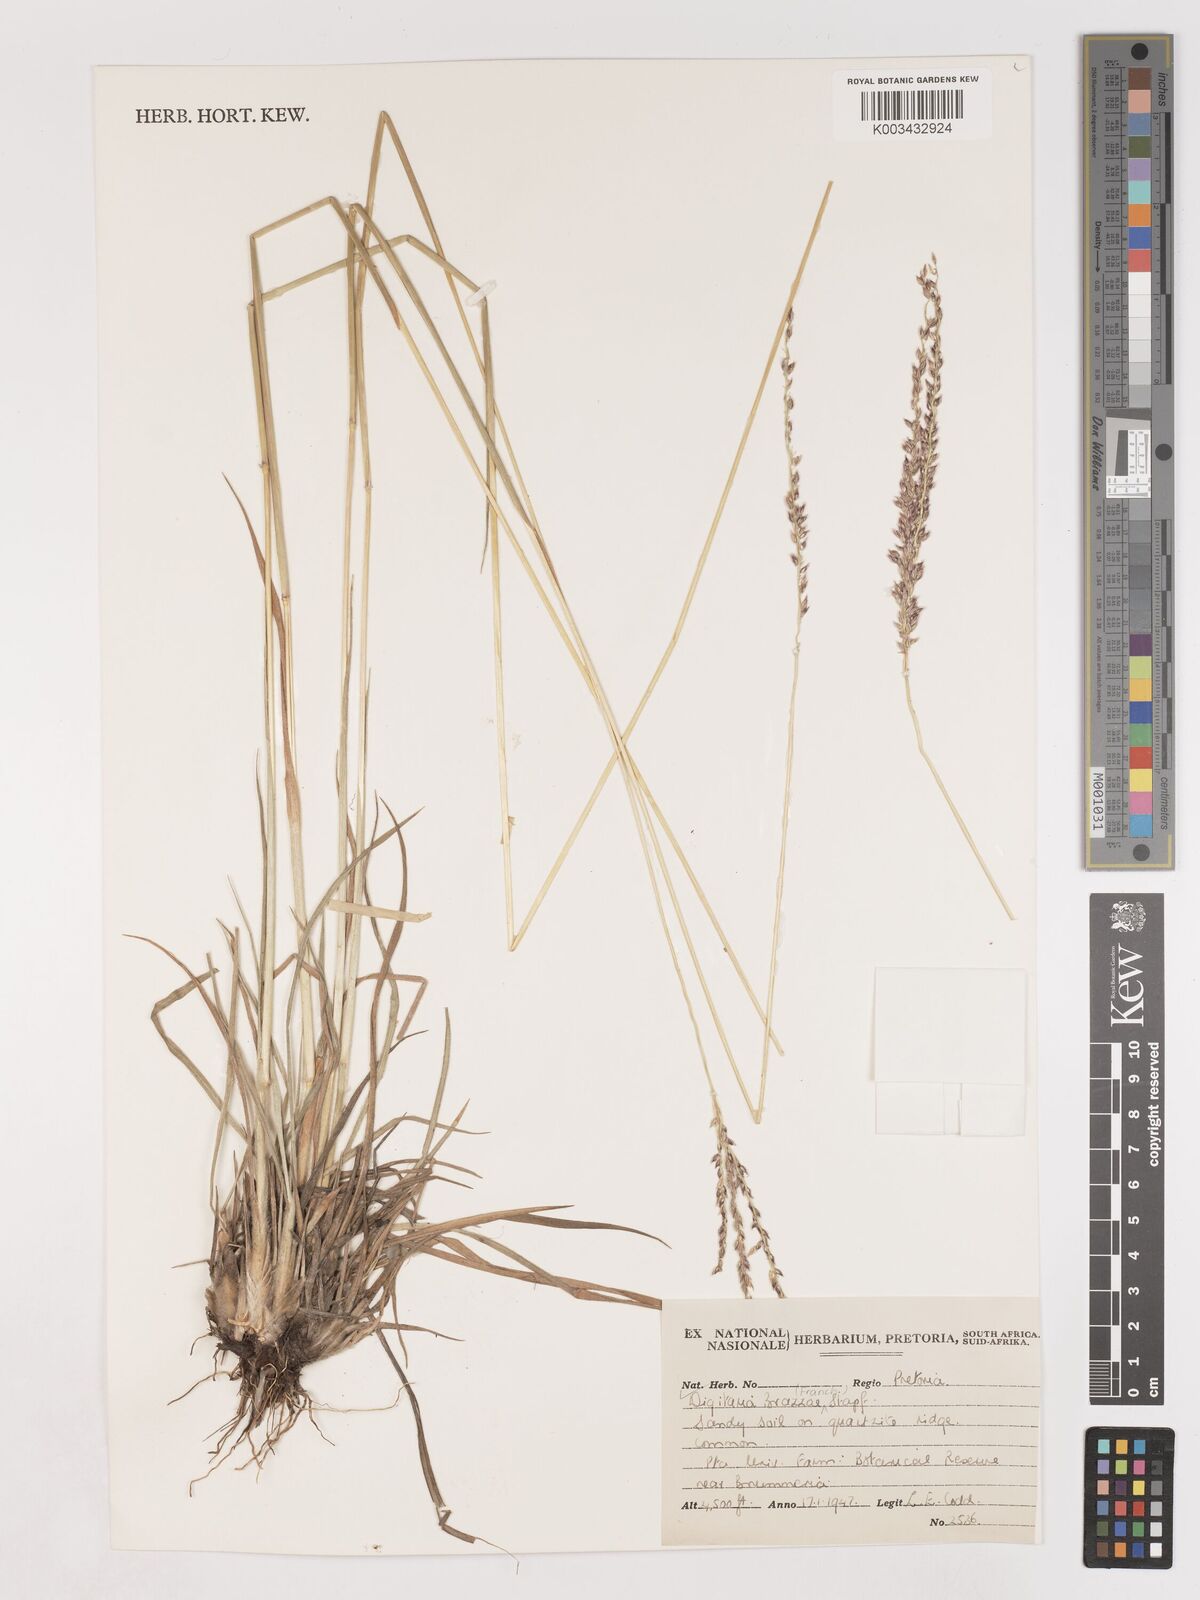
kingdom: Plantae
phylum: Tracheophyta
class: Liliopsida
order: Poales
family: Poaceae
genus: Digitaria
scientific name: Digitaria brazzae
